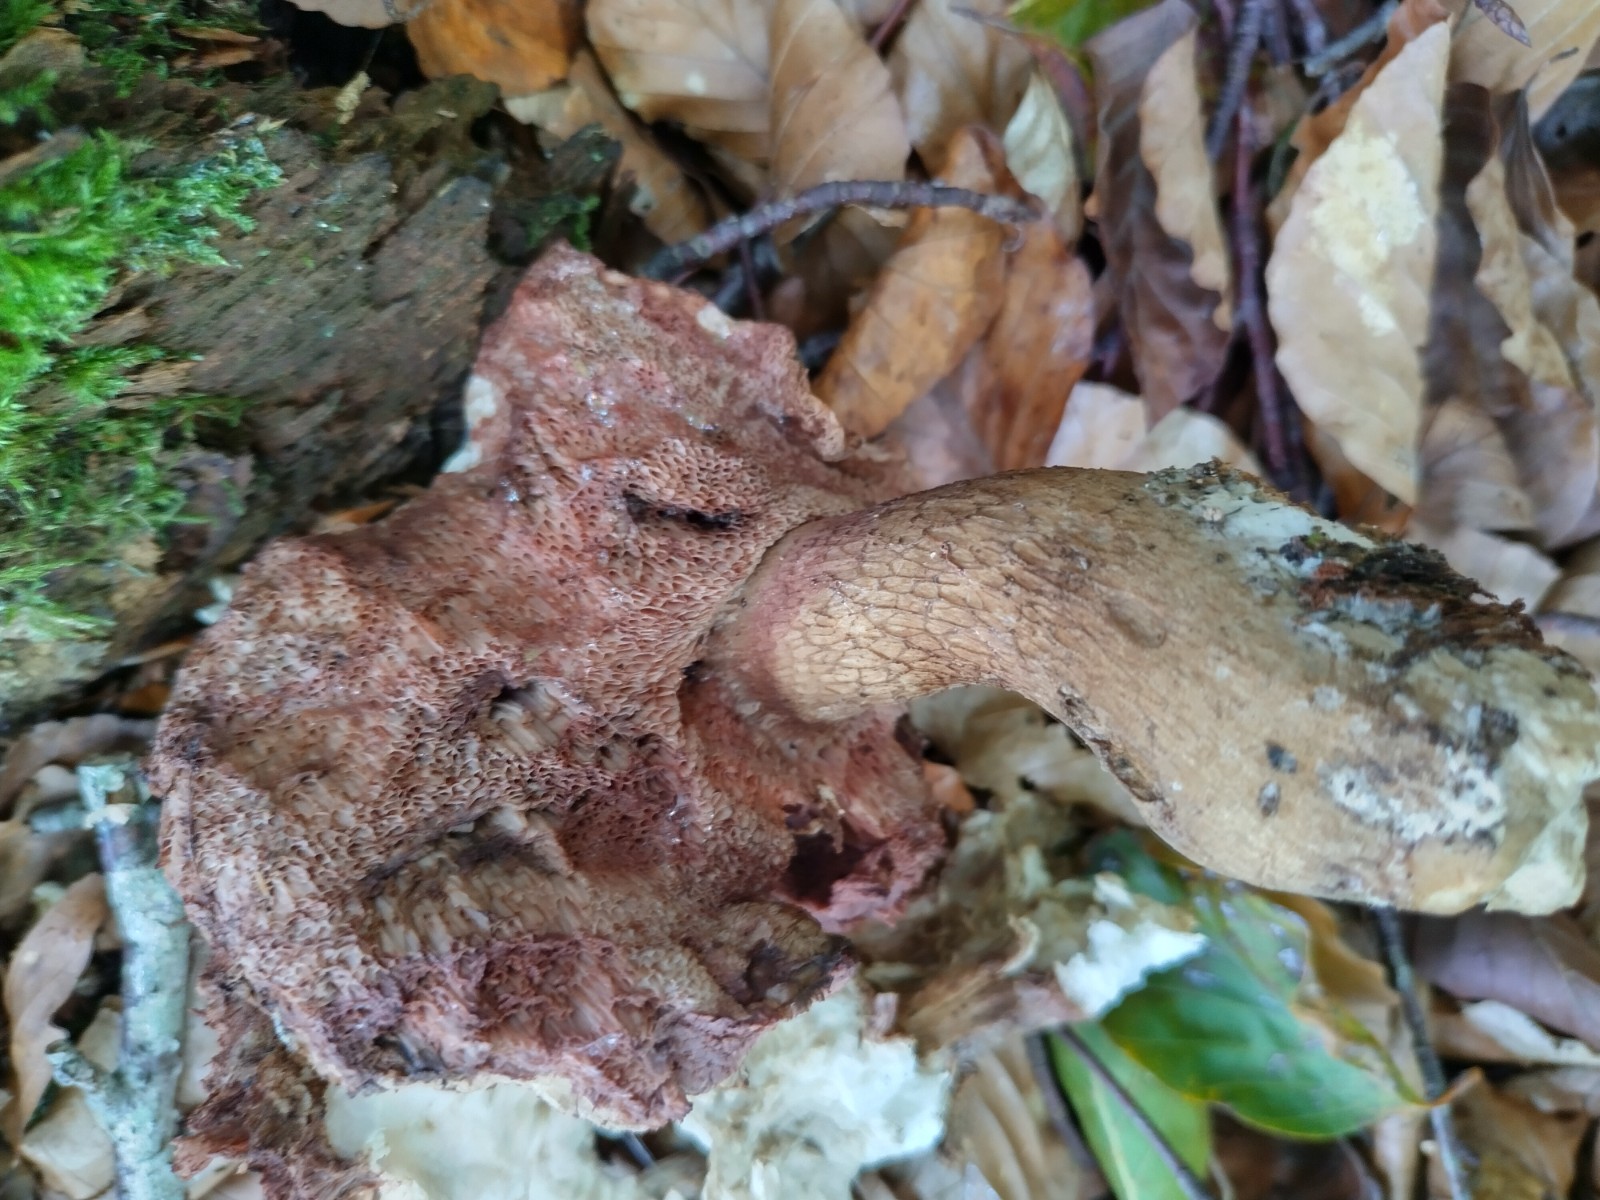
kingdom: Fungi
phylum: Basidiomycota
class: Agaricomycetes
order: Boletales
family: Boletaceae
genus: Tylopilus
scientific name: Tylopilus felleus
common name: galderørhat
